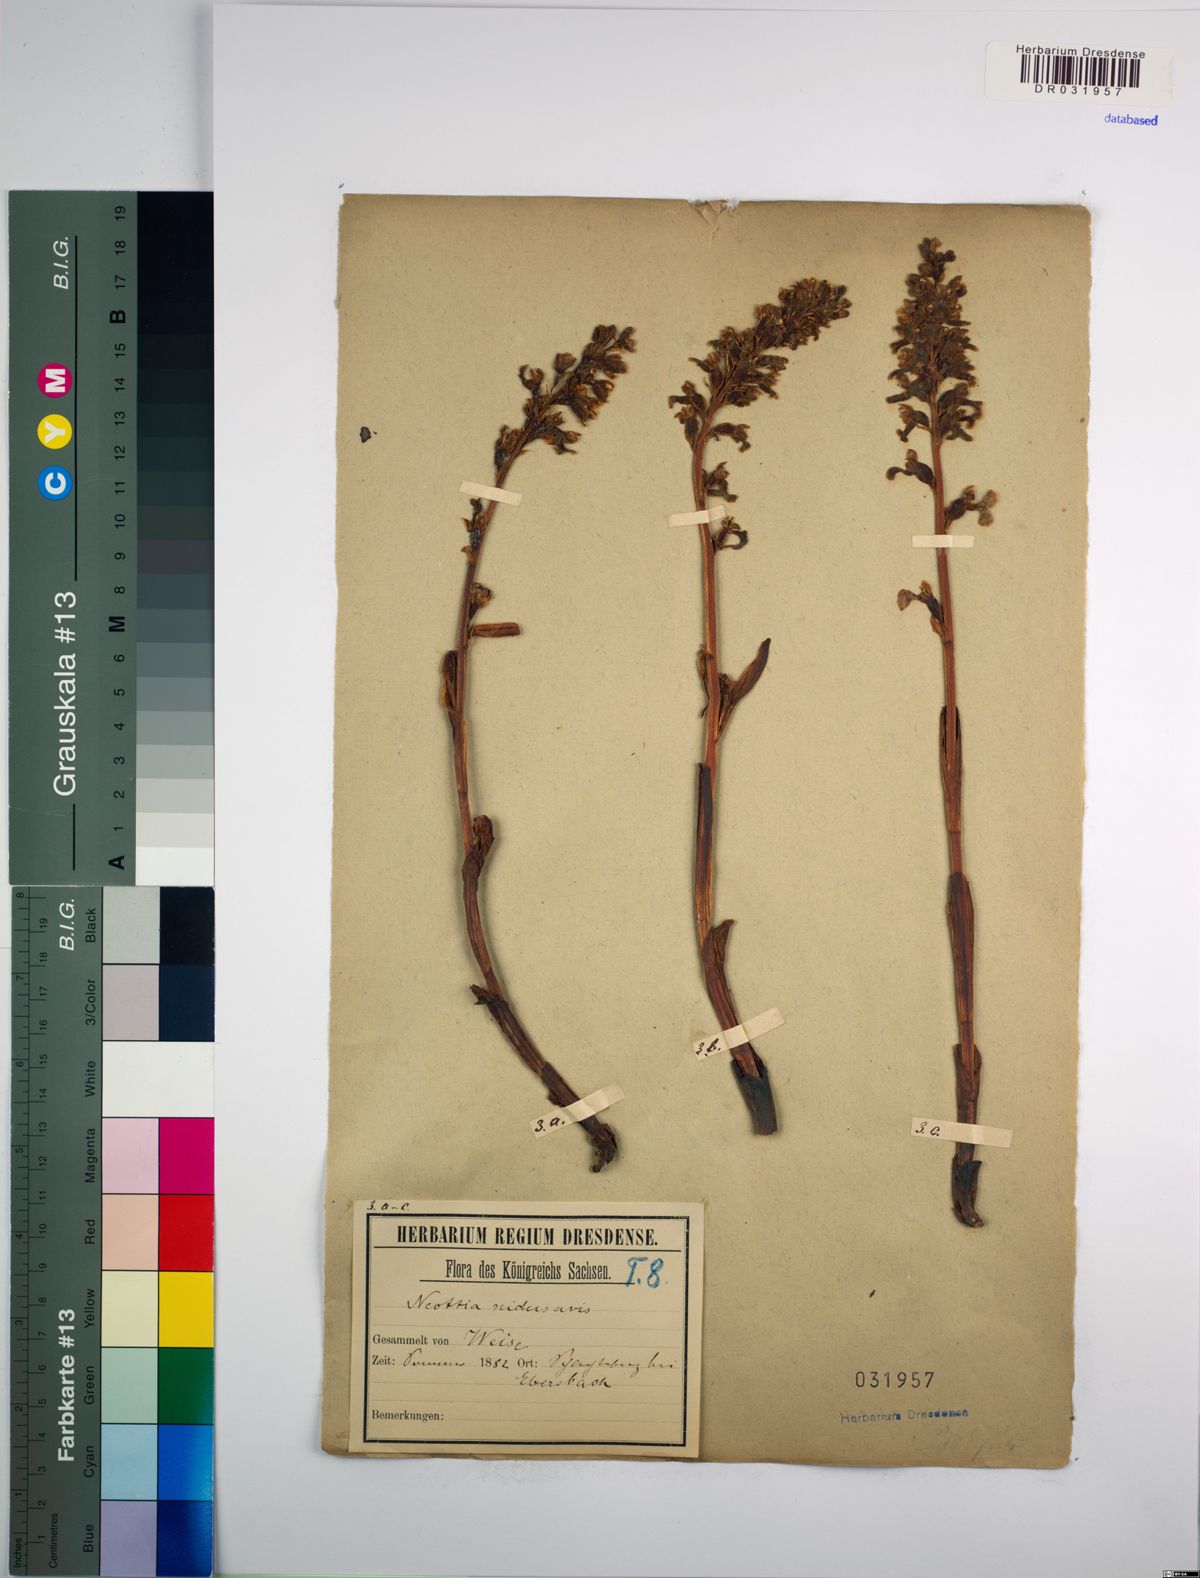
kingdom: Plantae
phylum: Tracheophyta
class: Liliopsida
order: Asparagales
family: Orchidaceae
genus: Neottia
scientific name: Neottia nidus-avis
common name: Bird's-nest orchid
